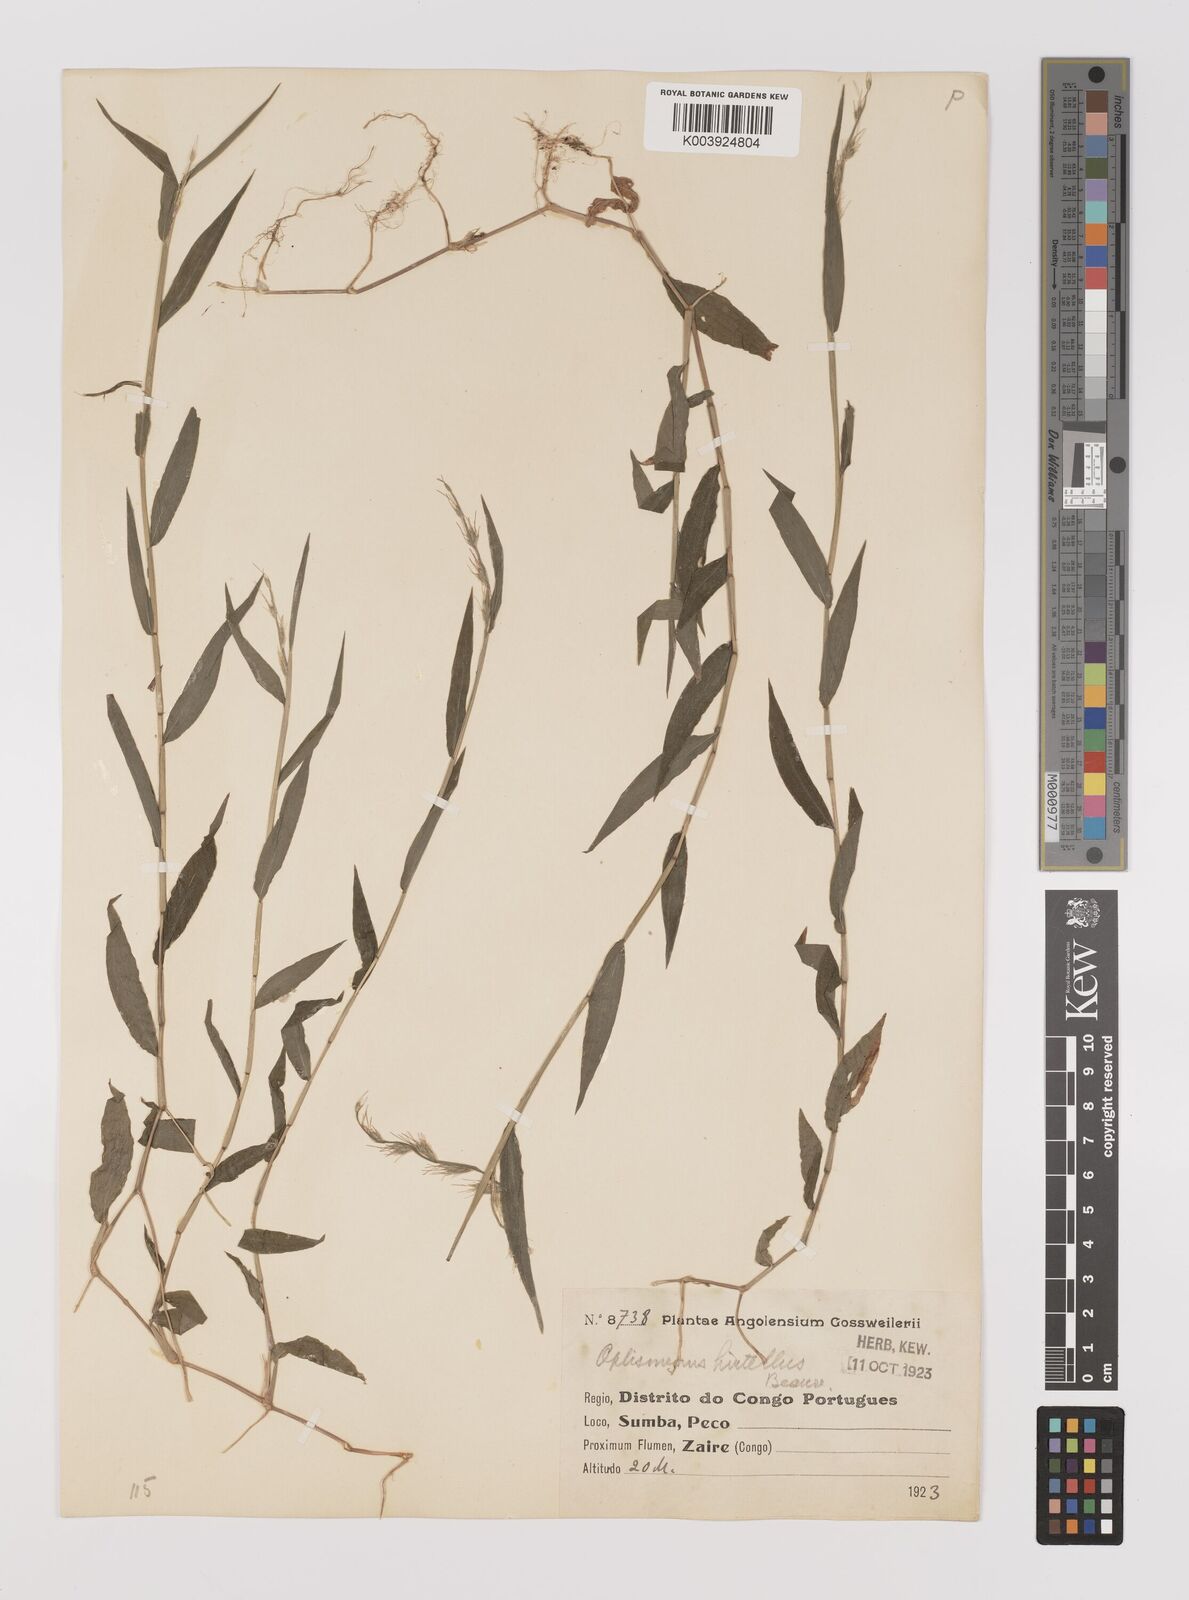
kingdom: Plantae
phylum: Tracheophyta
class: Liliopsida
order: Poales
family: Poaceae
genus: Oplismenus
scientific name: Oplismenus hirtellus
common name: Basketgrass
